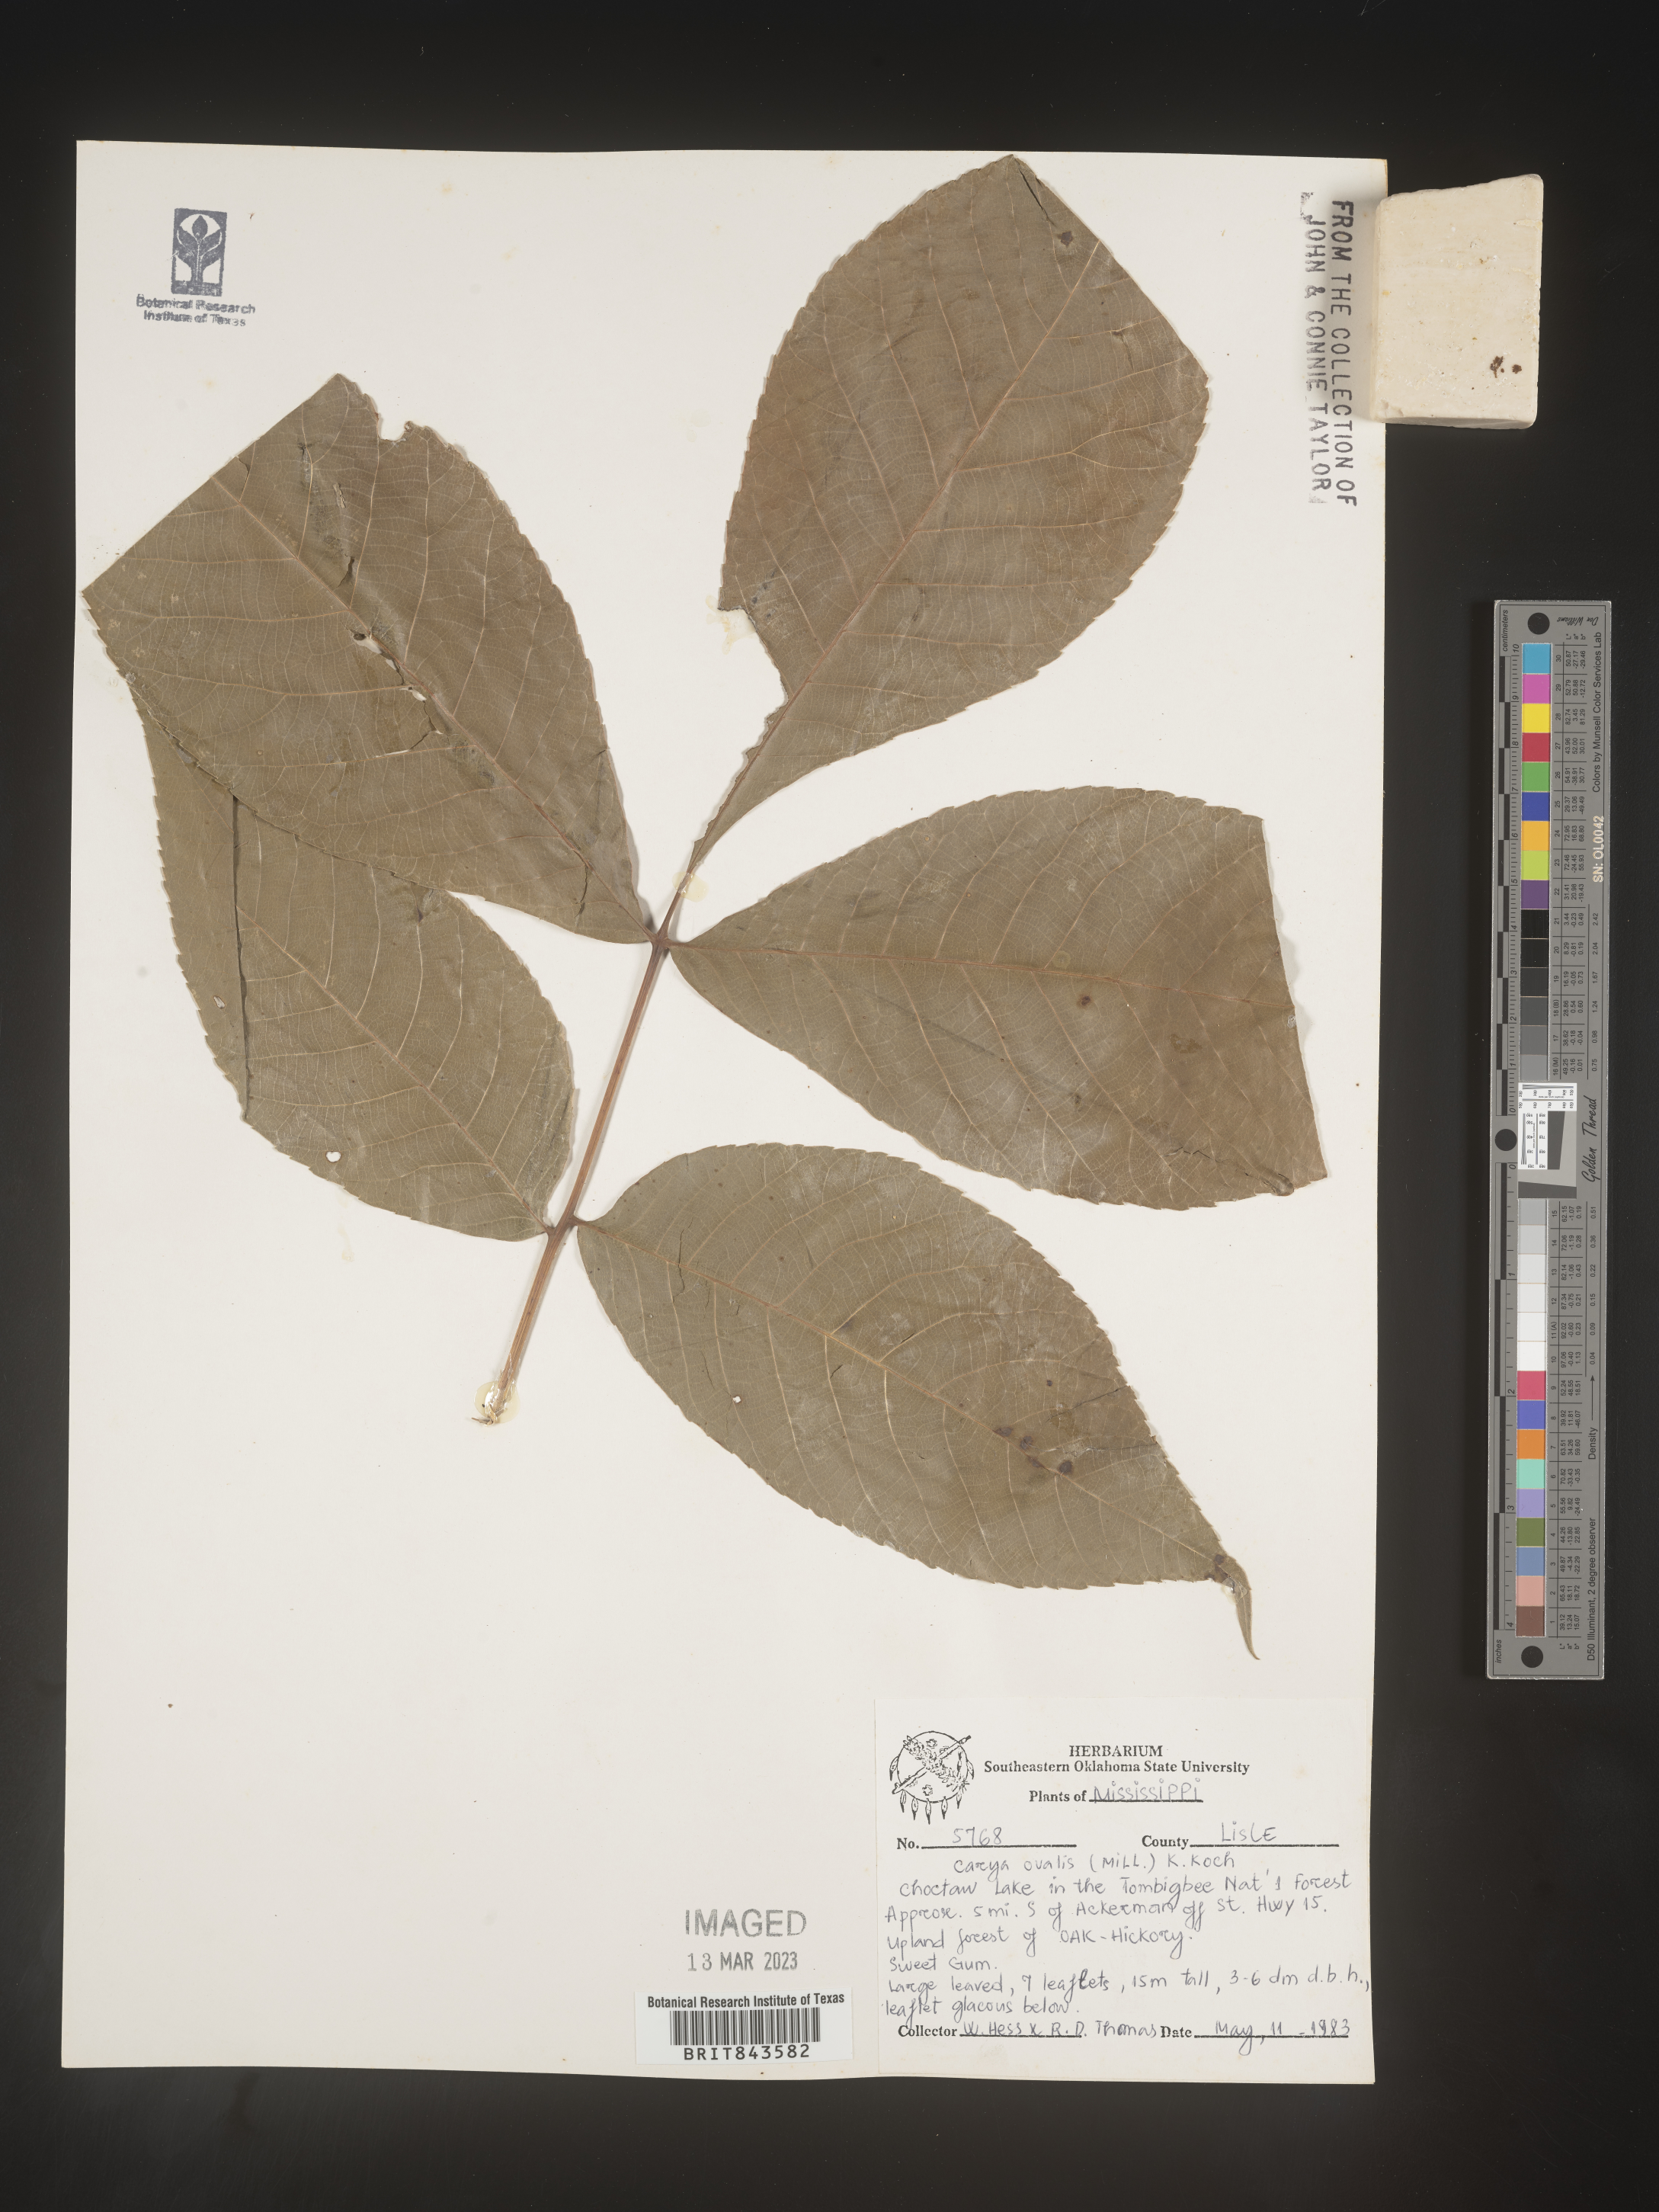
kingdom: Plantae
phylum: Tracheophyta
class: Magnoliopsida
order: Fagales
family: Juglandaceae
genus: Carya
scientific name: Carya ovalis
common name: False shagbark
